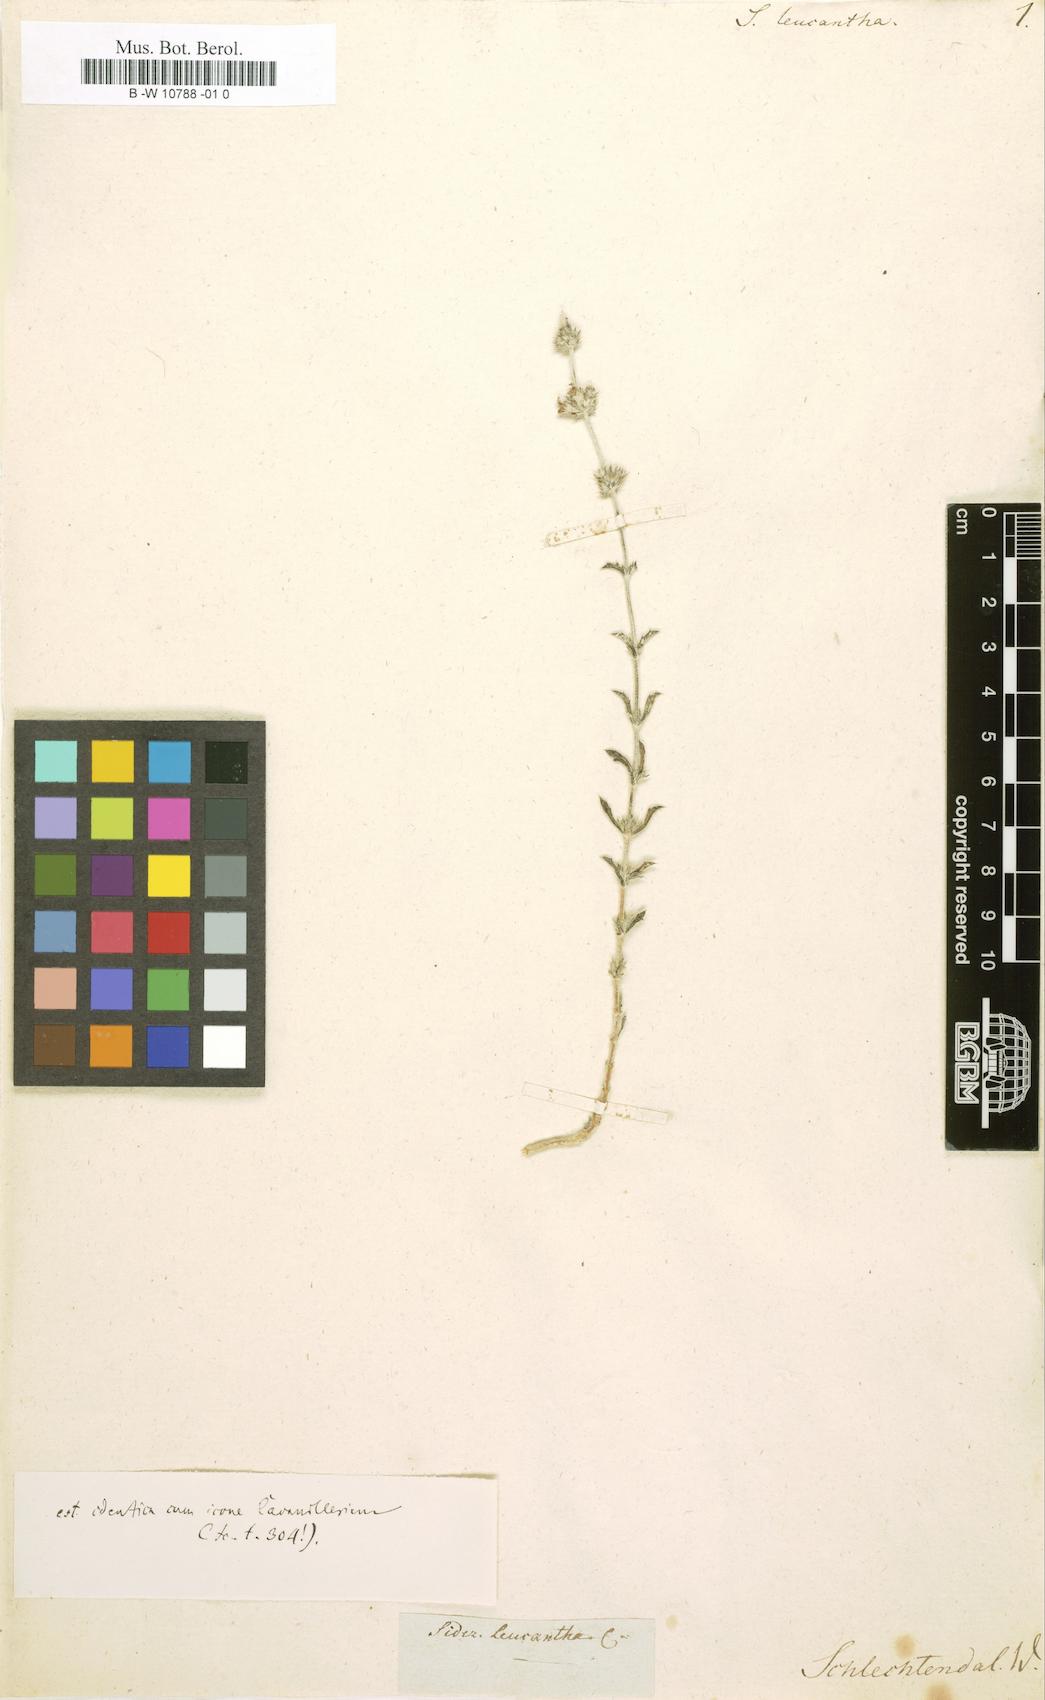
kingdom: Plantae
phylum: Tracheophyta
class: Magnoliopsida
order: Lamiales
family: Lamiaceae
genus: Sideritis
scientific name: Sideritis leucantha
